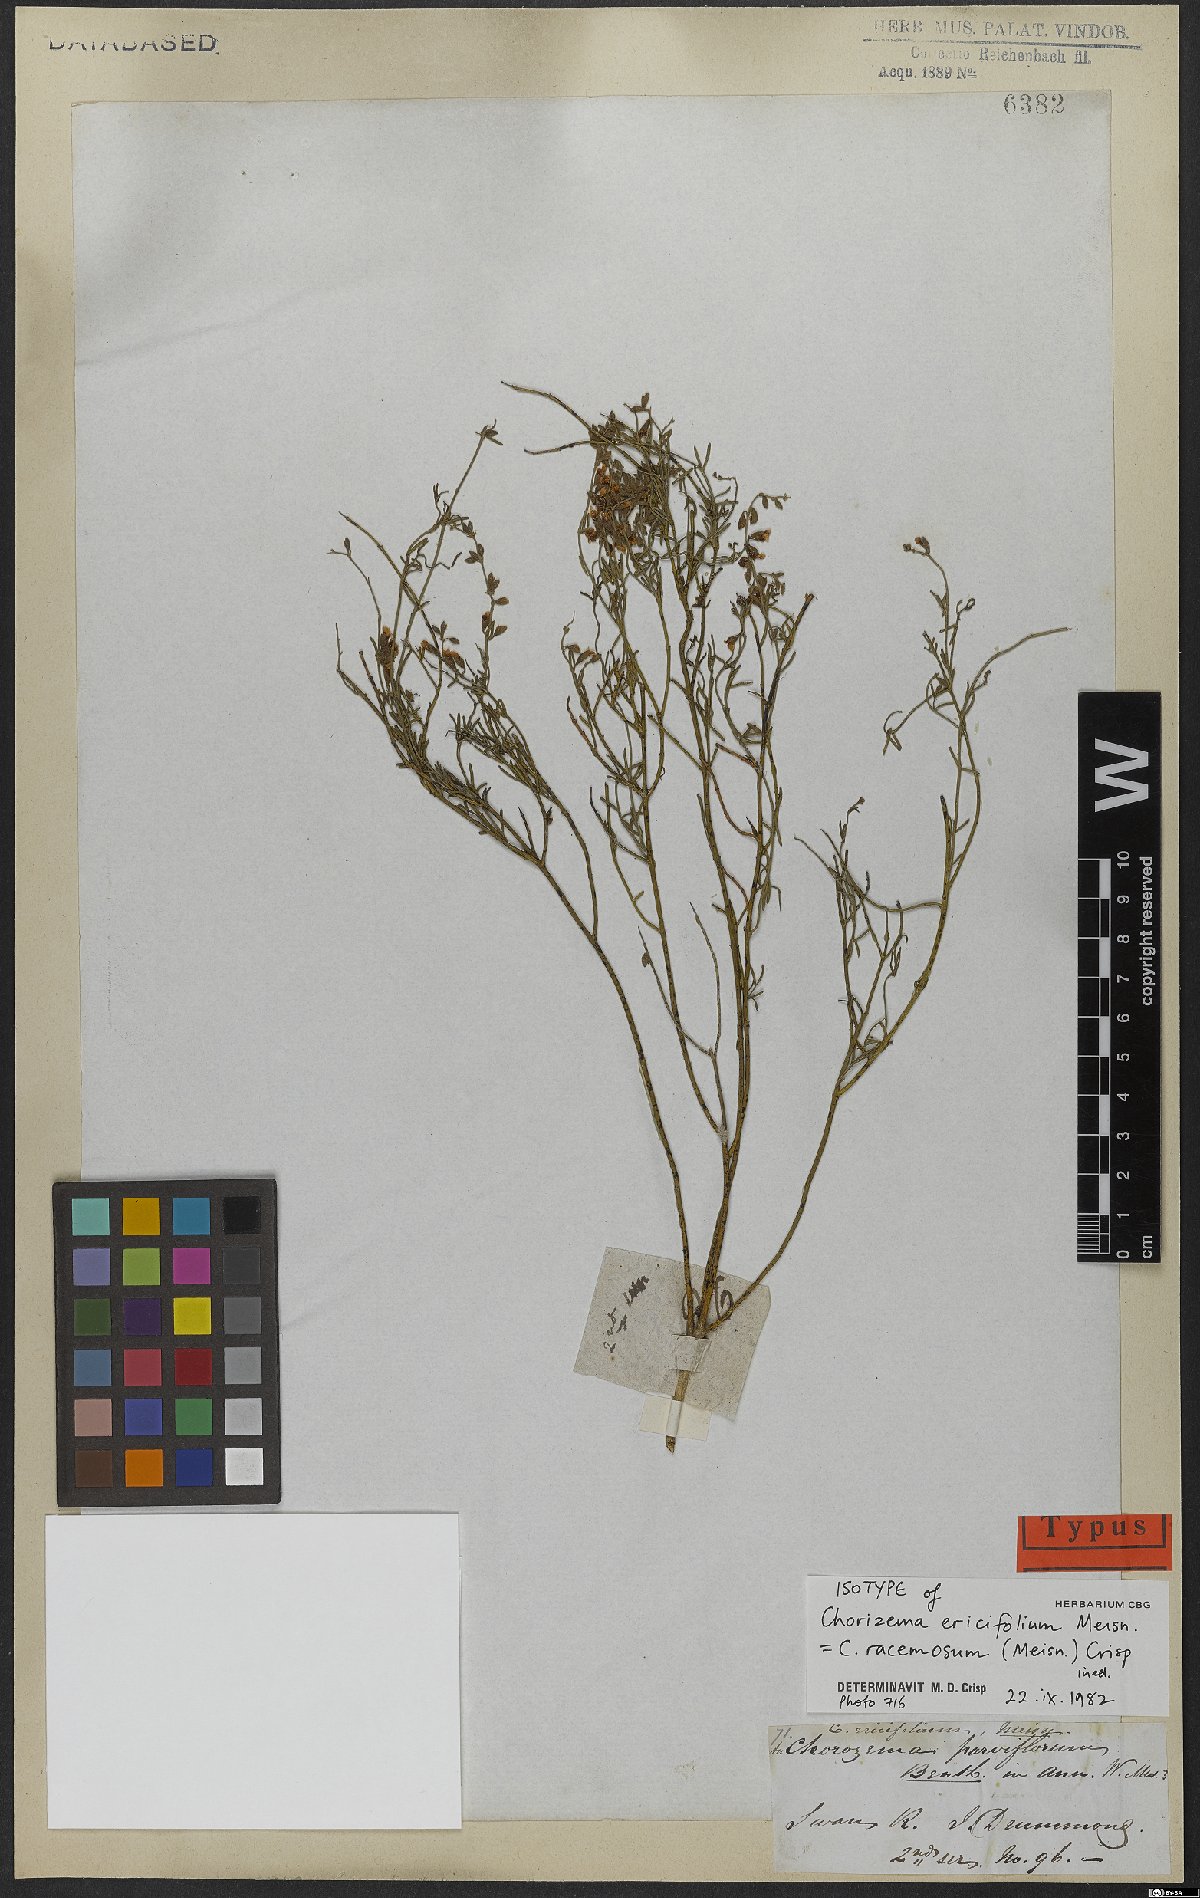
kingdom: Plantae
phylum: Tracheophyta
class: Magnoliopsida
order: Fabales
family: Fabaceae
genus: Chorizema
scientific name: Chorizema racemosum
